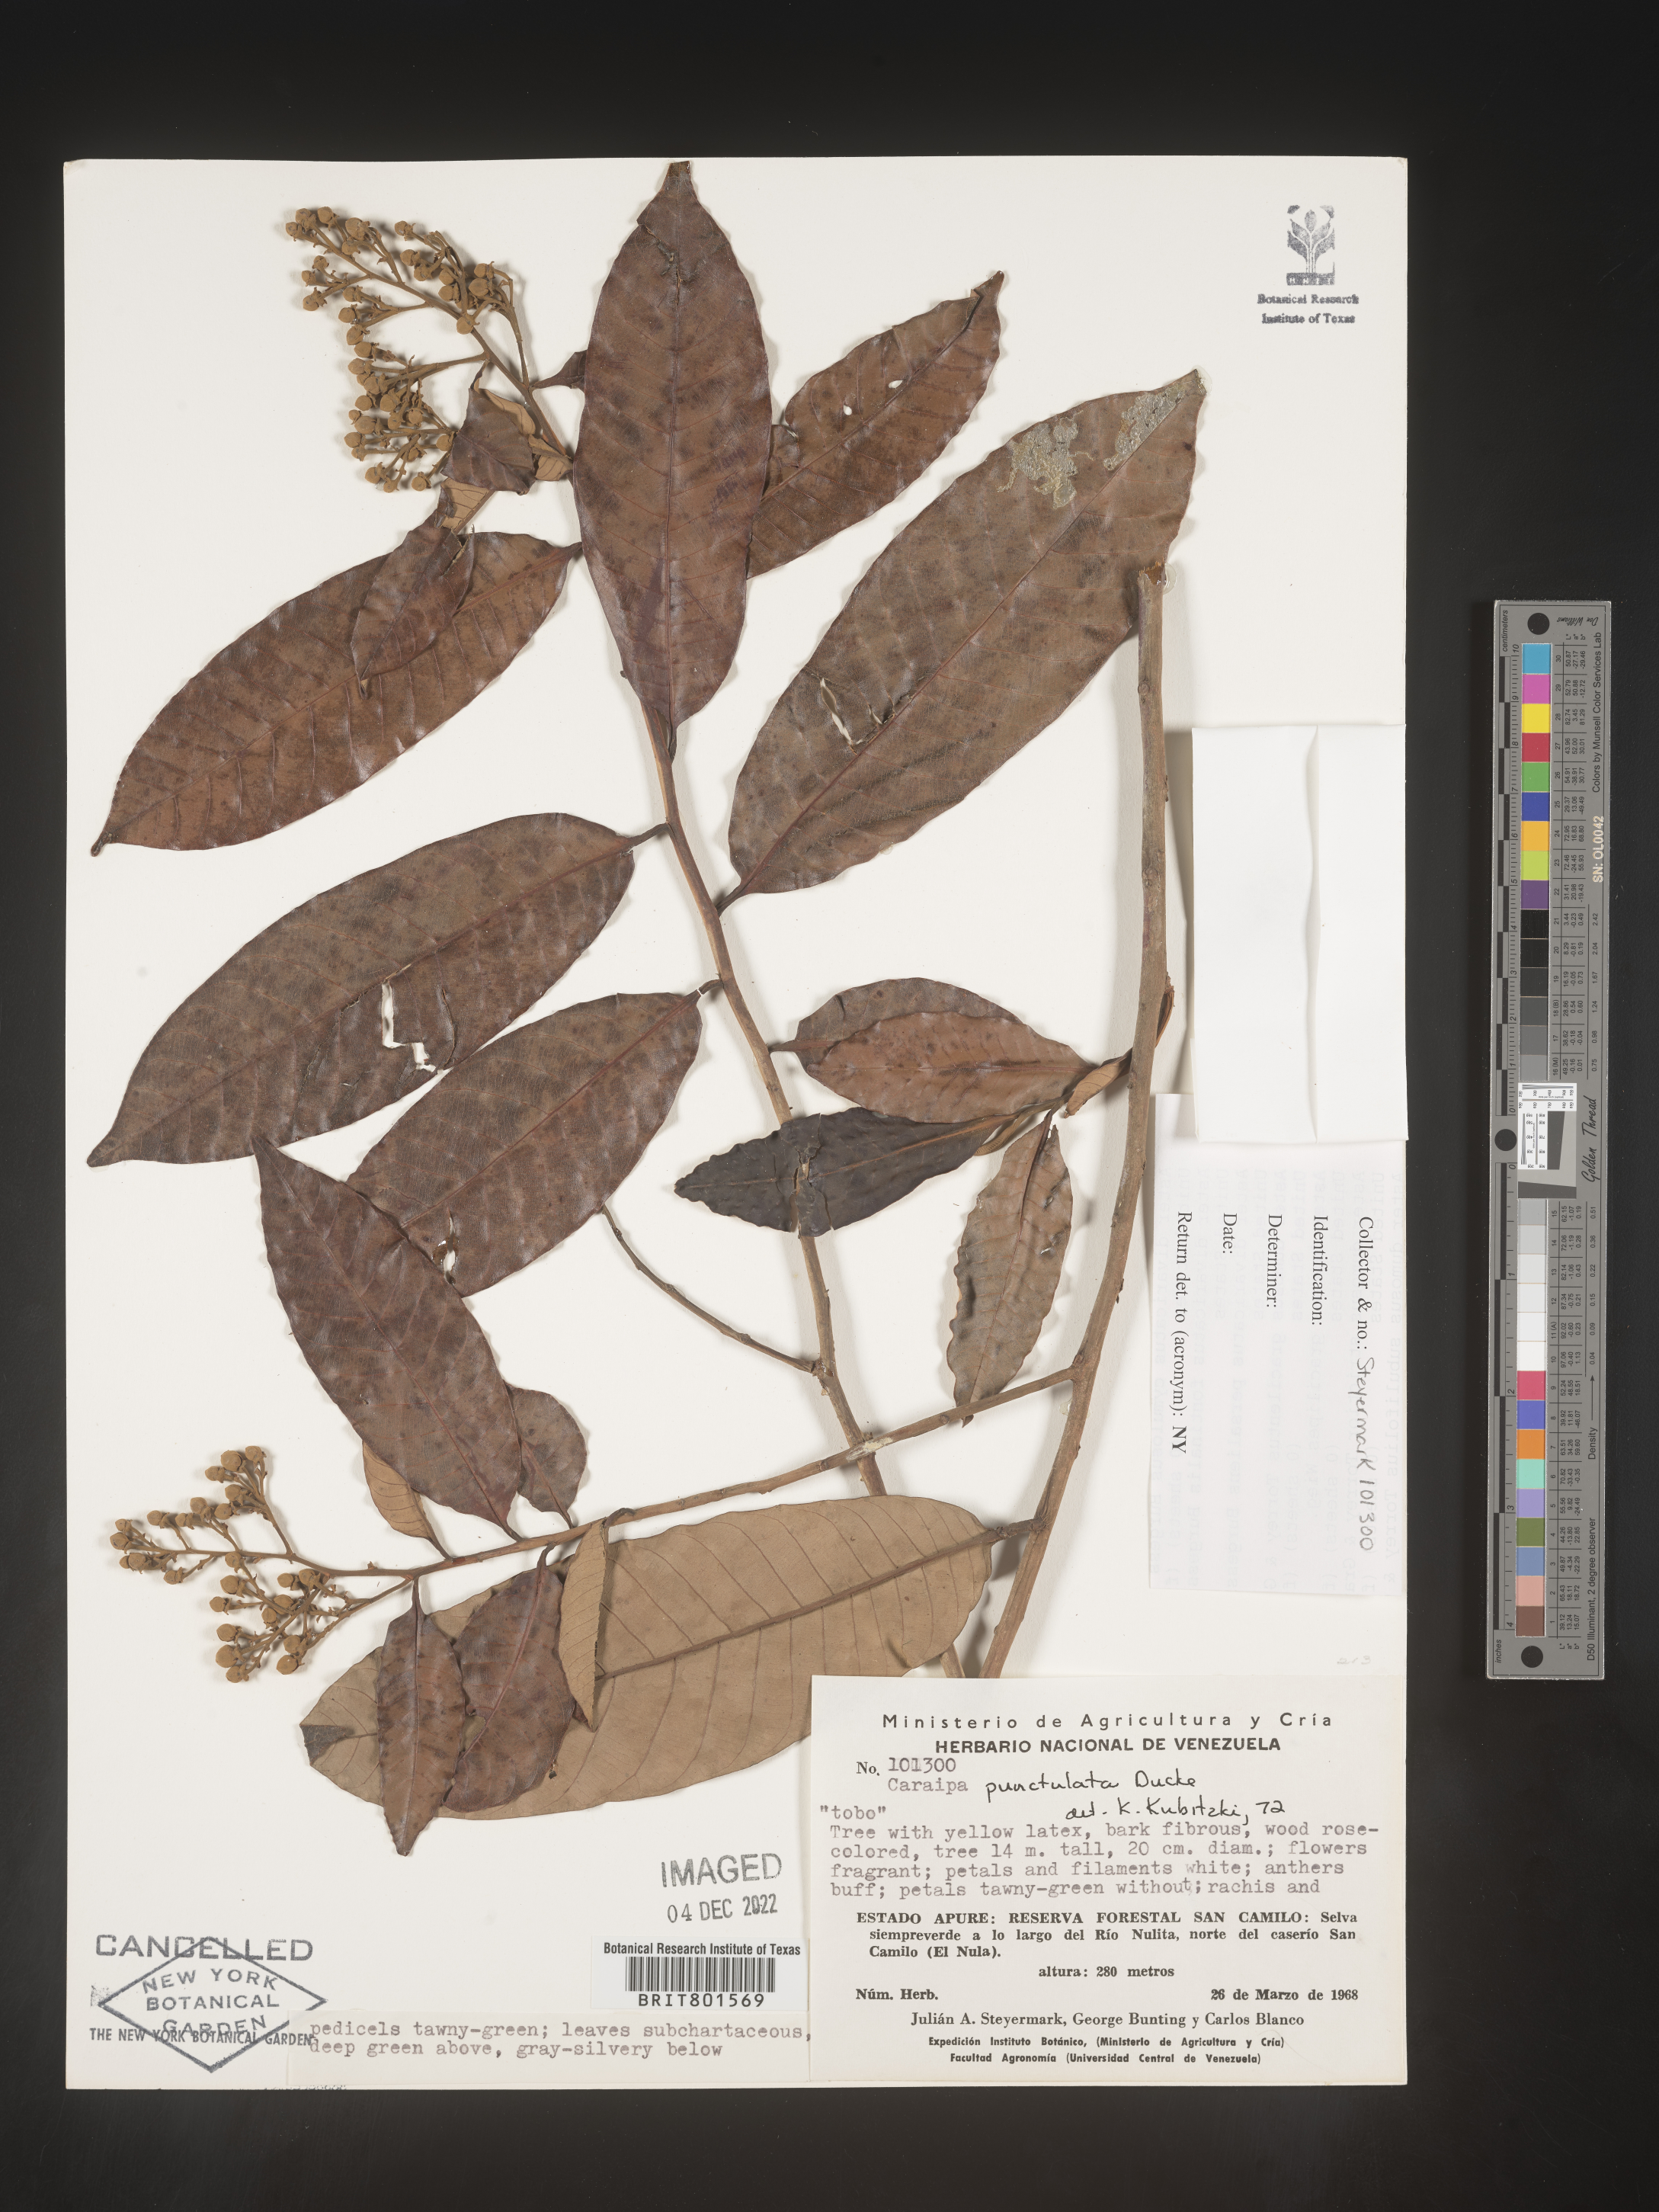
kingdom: Plantae
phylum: Tracheophyta
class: Magnoliopsida
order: Malpighiales
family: Calophyllaceae
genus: Caraipa
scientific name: Caraipa
